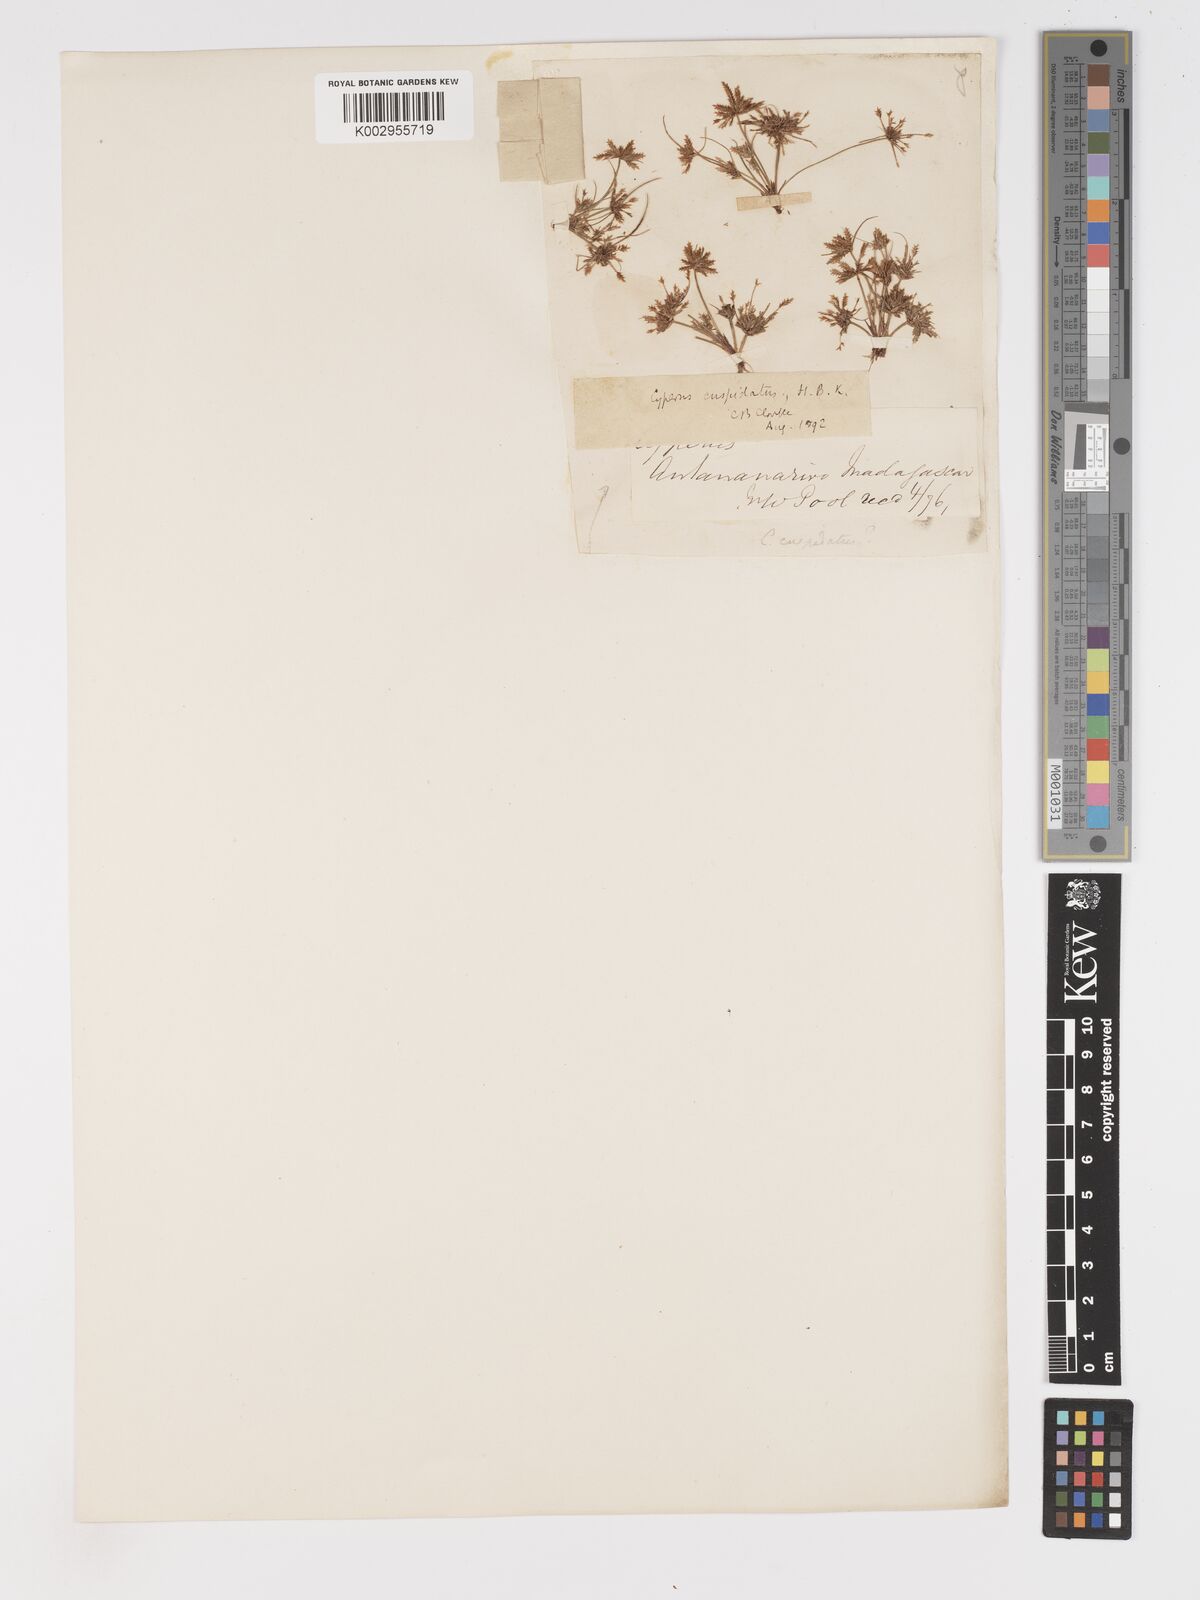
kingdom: Plantae
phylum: Tracheophyta
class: Liliopsida
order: Poales
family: Cyperaceae
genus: Cyperus
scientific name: Cyperus cuspidatus
